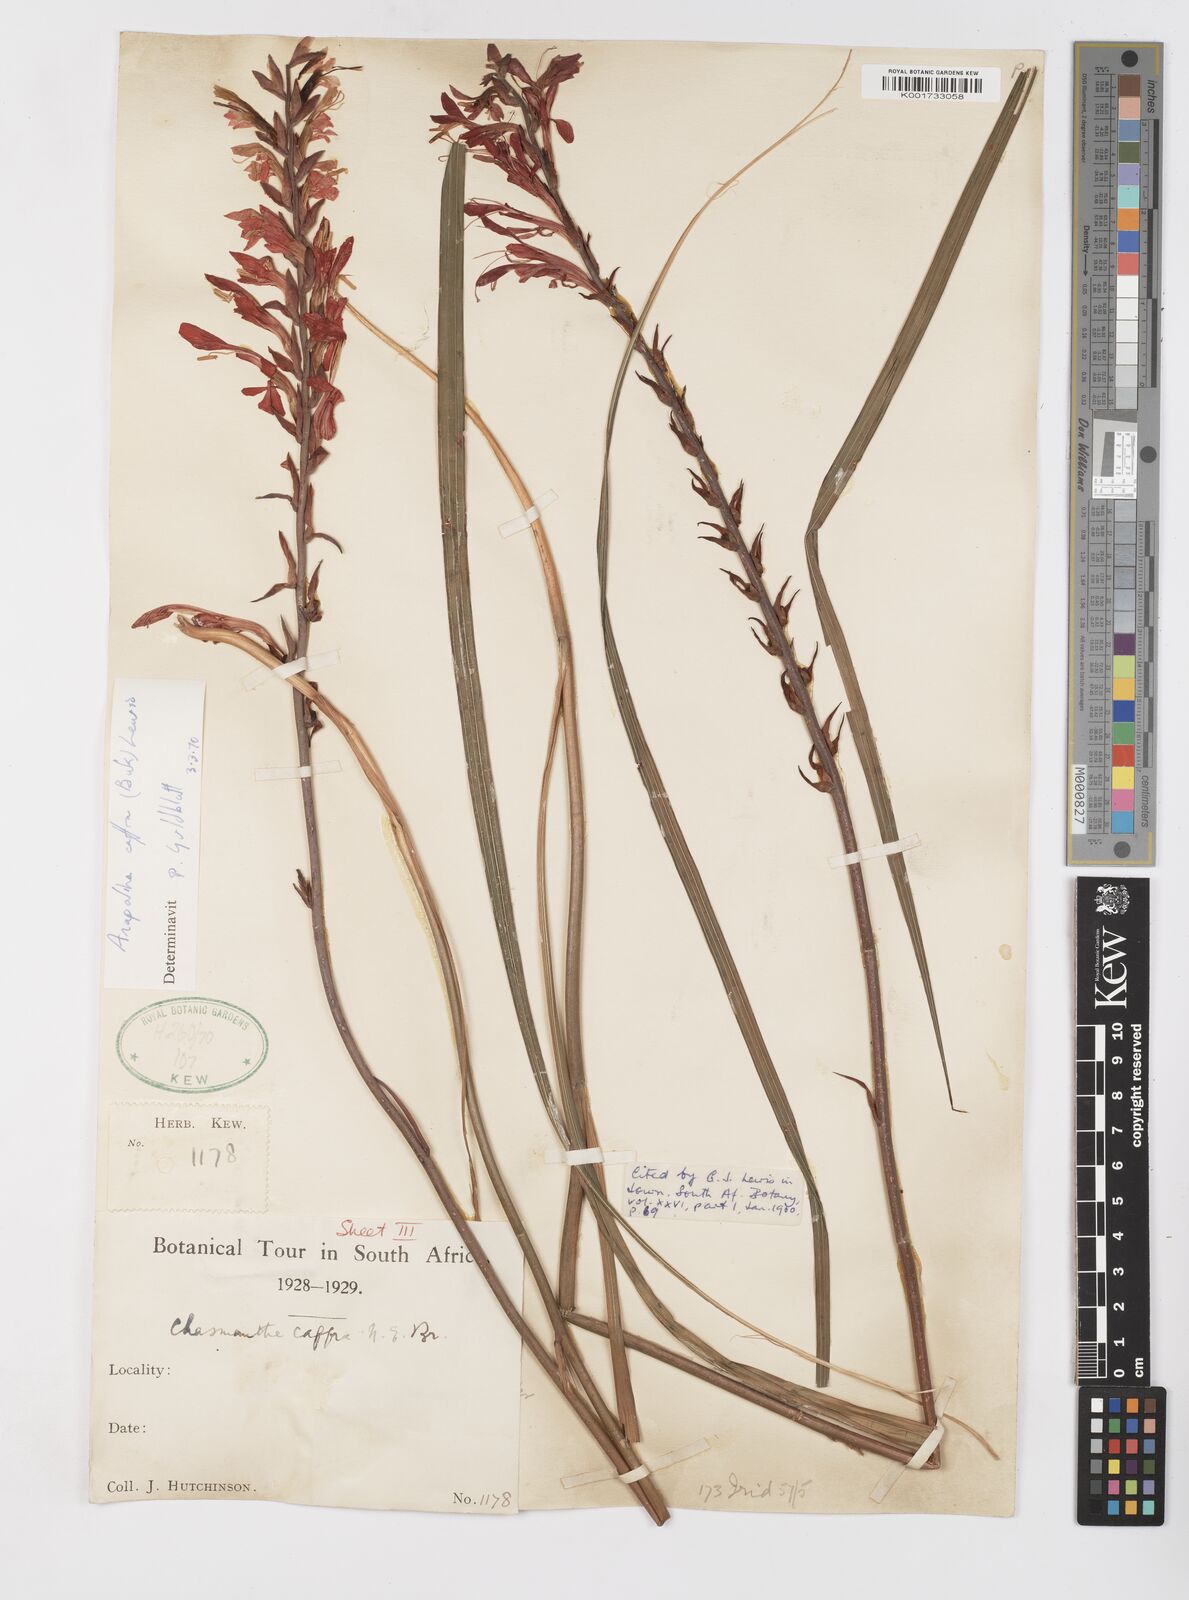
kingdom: Plantae
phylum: Tracheophyta
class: Liliopsida
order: Asparagales
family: Iridaceae
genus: Tritoniopsis
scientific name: Tritoniopsis caffra
